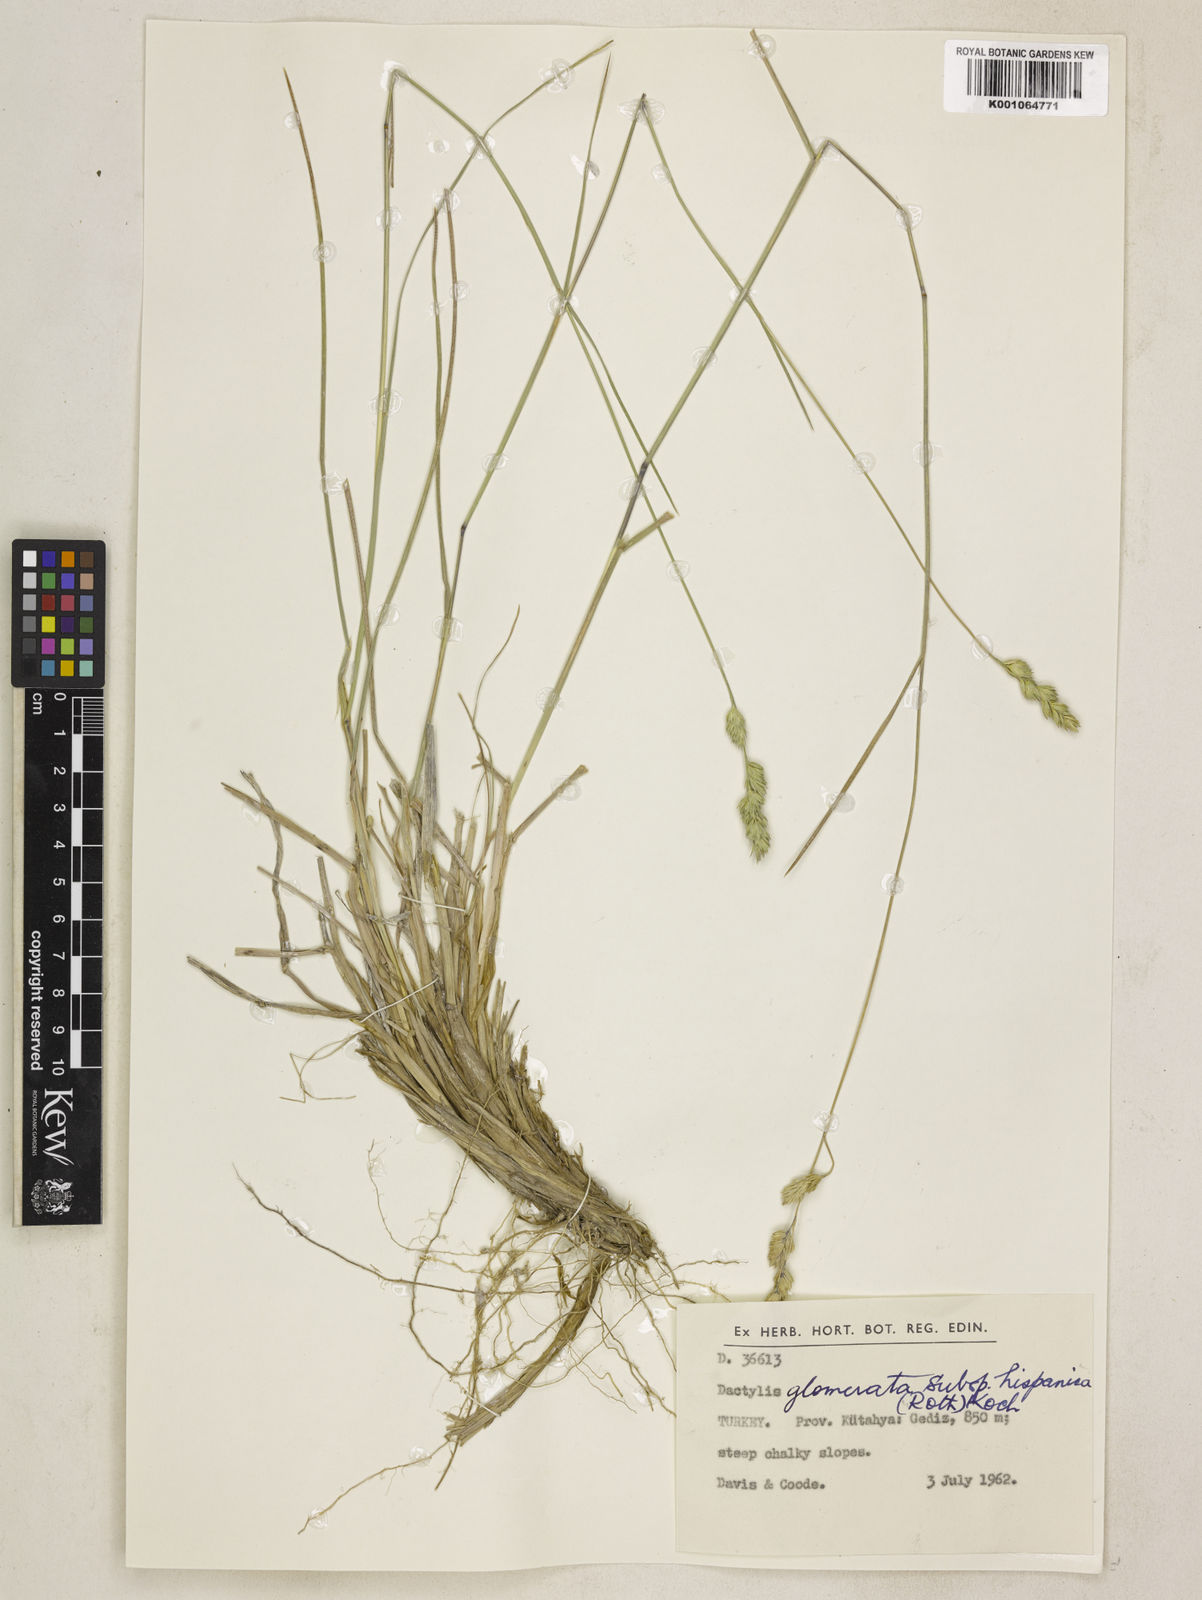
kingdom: Plantae
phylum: Tracheophyta
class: Liliopsida
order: Poales
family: Poaceae
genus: Dactylis
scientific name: Dactylis glomerata
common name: Orchardgrass
